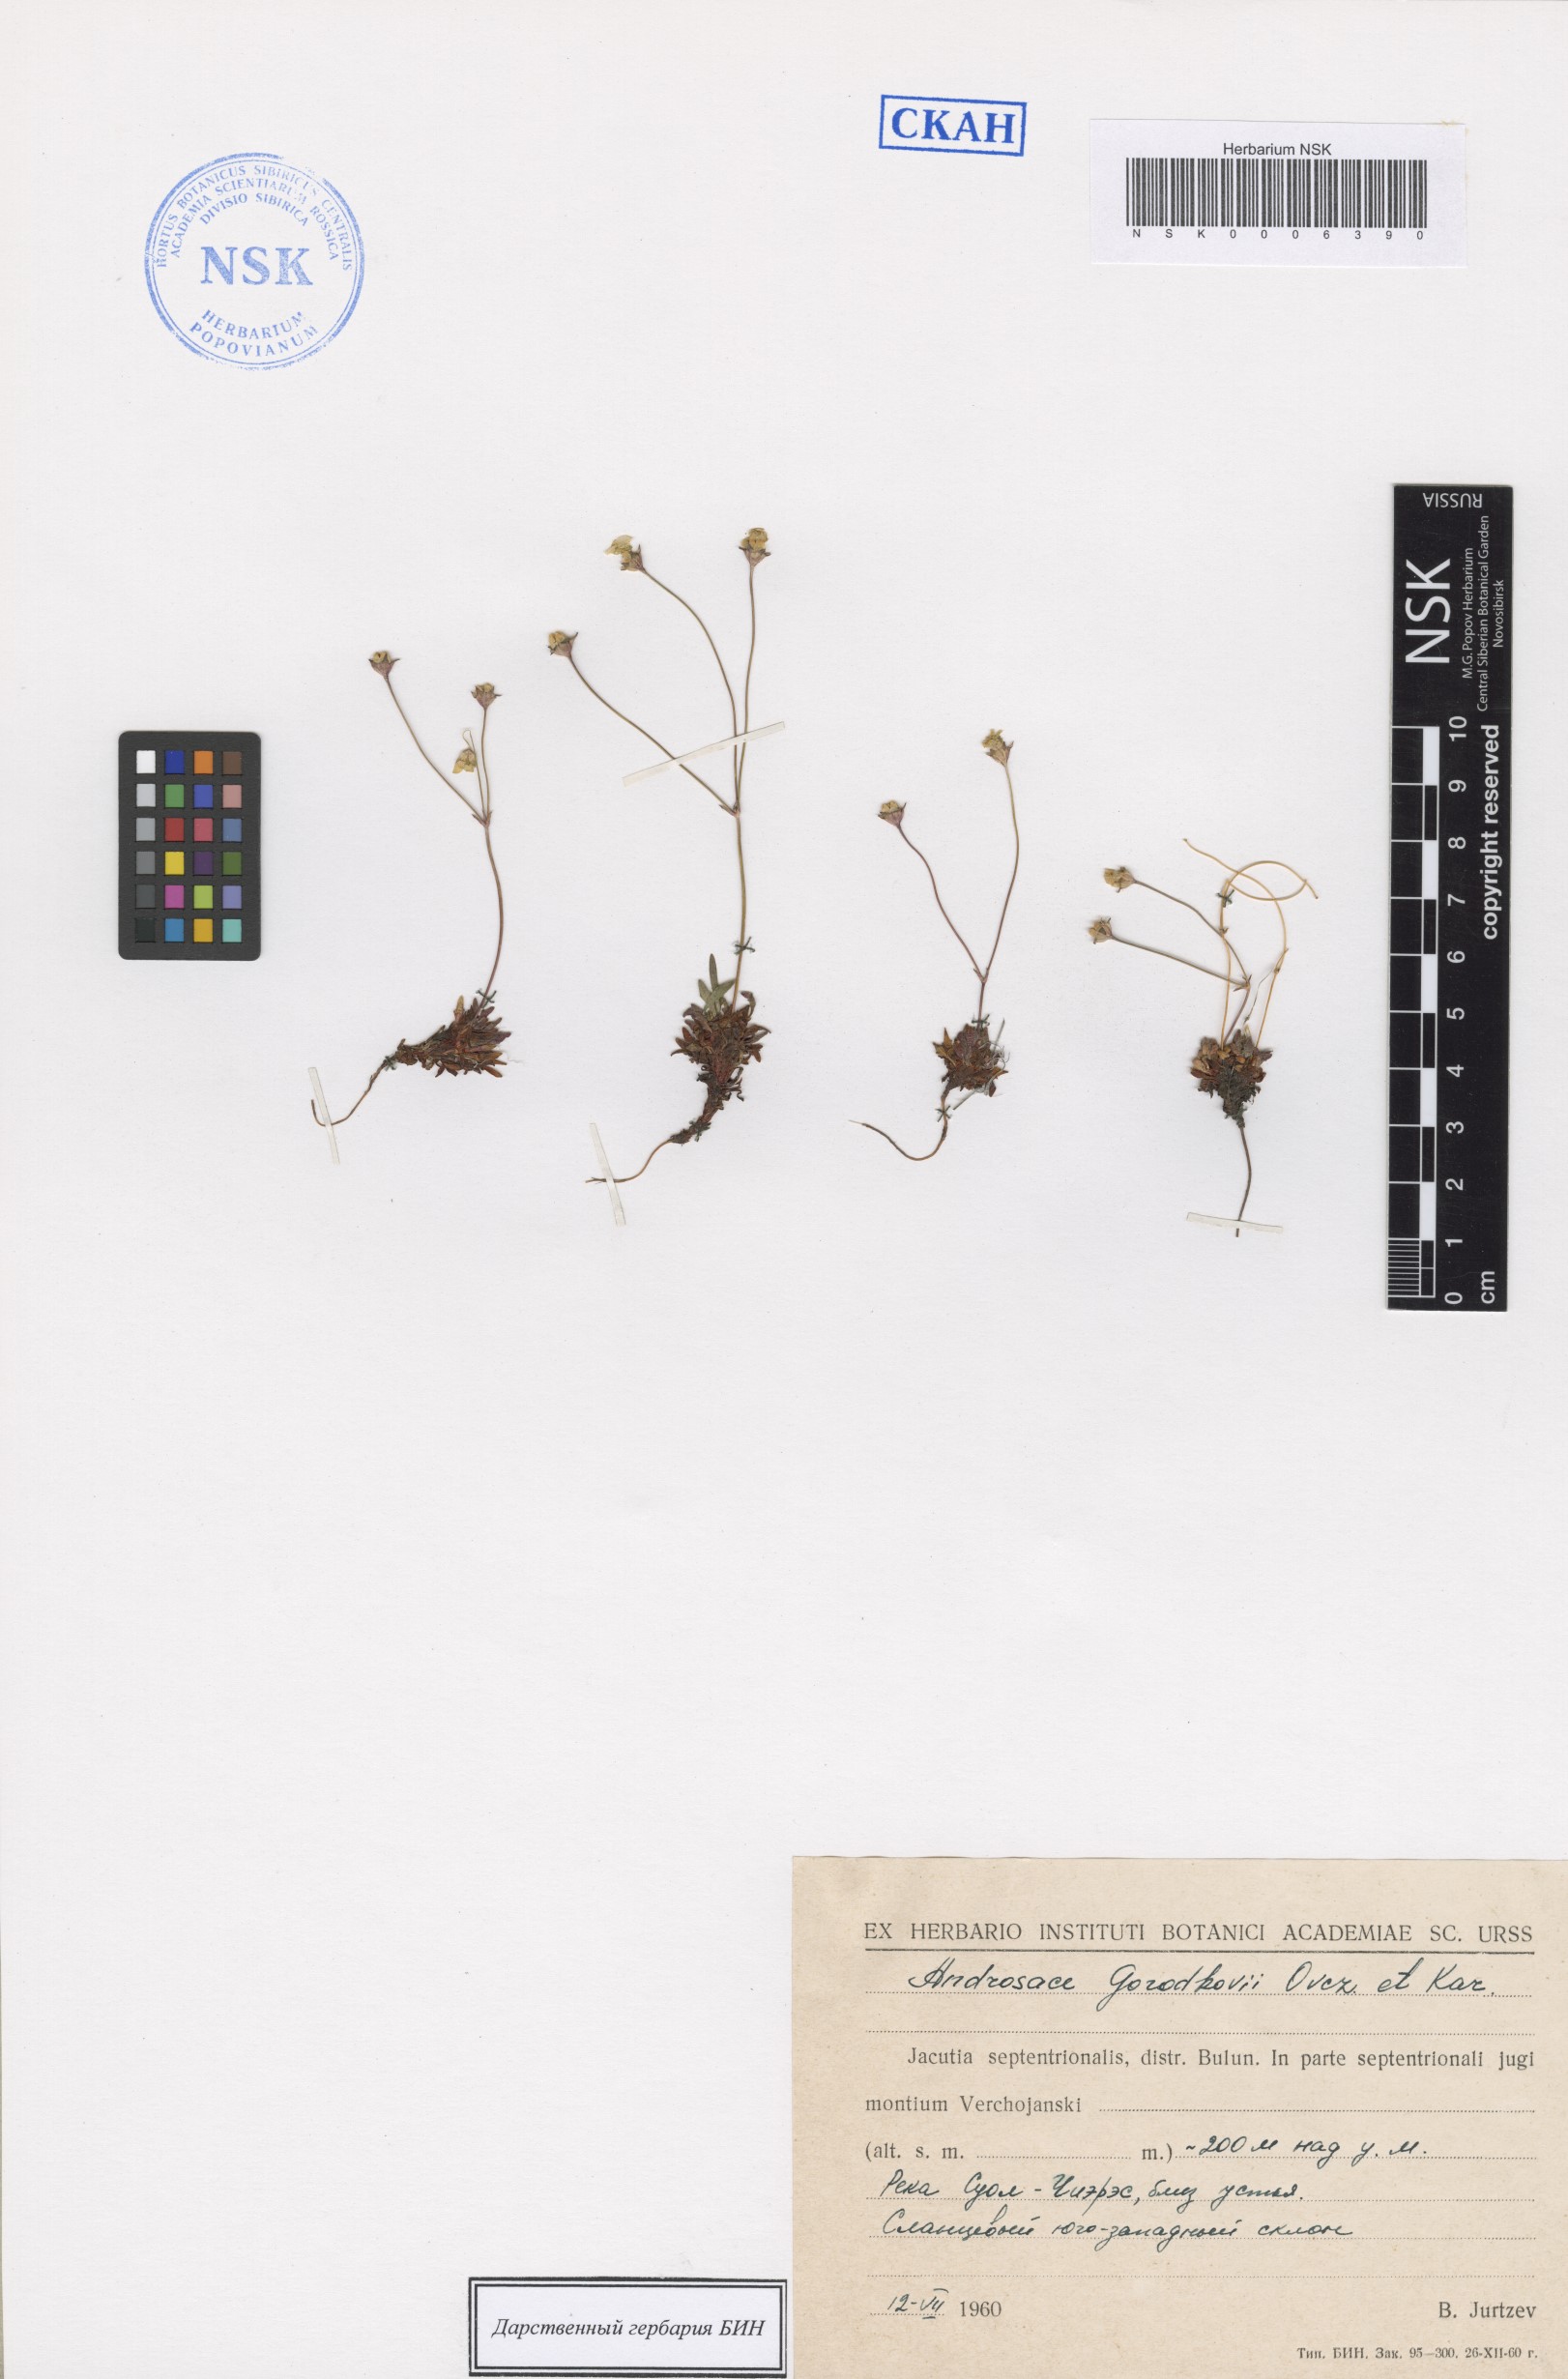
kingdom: Plantae
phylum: Tracheophyta
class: Magnoliopsida
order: Ericales
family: Primulaceae
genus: Androsace
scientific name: Androsace gorodkovii
